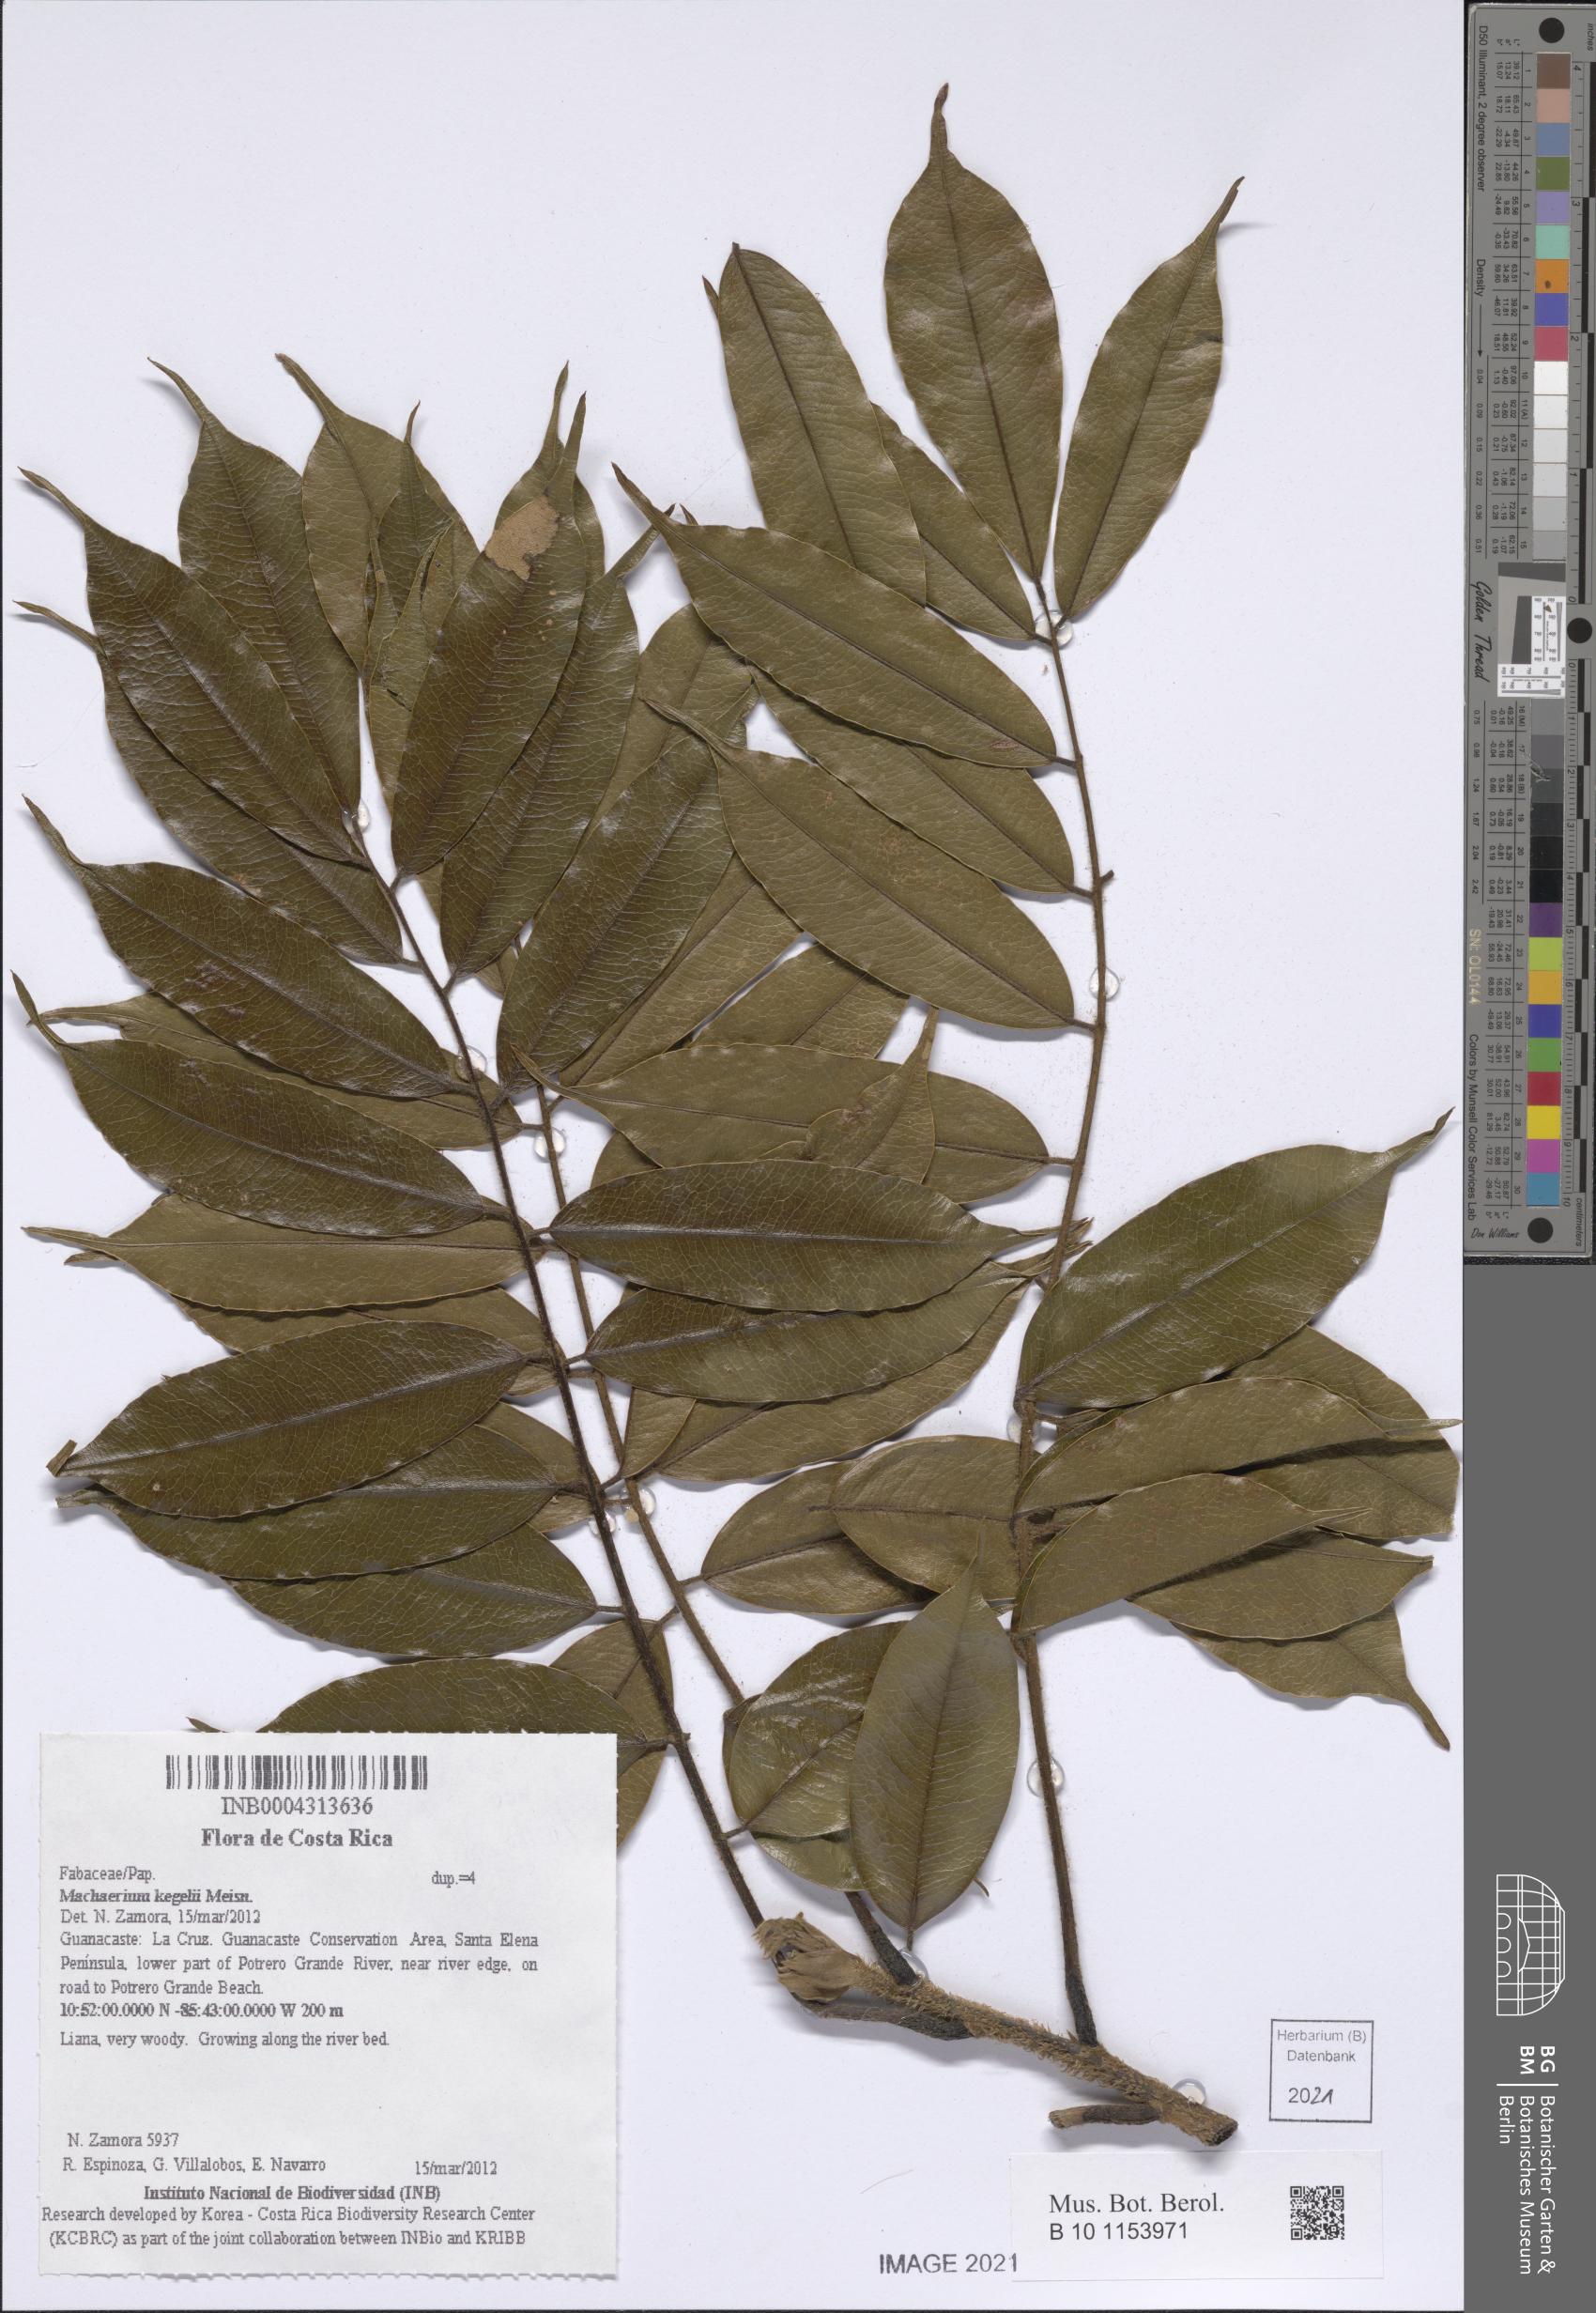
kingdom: Plantae
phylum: Tracheophyta
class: Magnoliopsida
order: Fabales
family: Fabaceae
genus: Machaerium
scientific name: Machaerium kegelii
